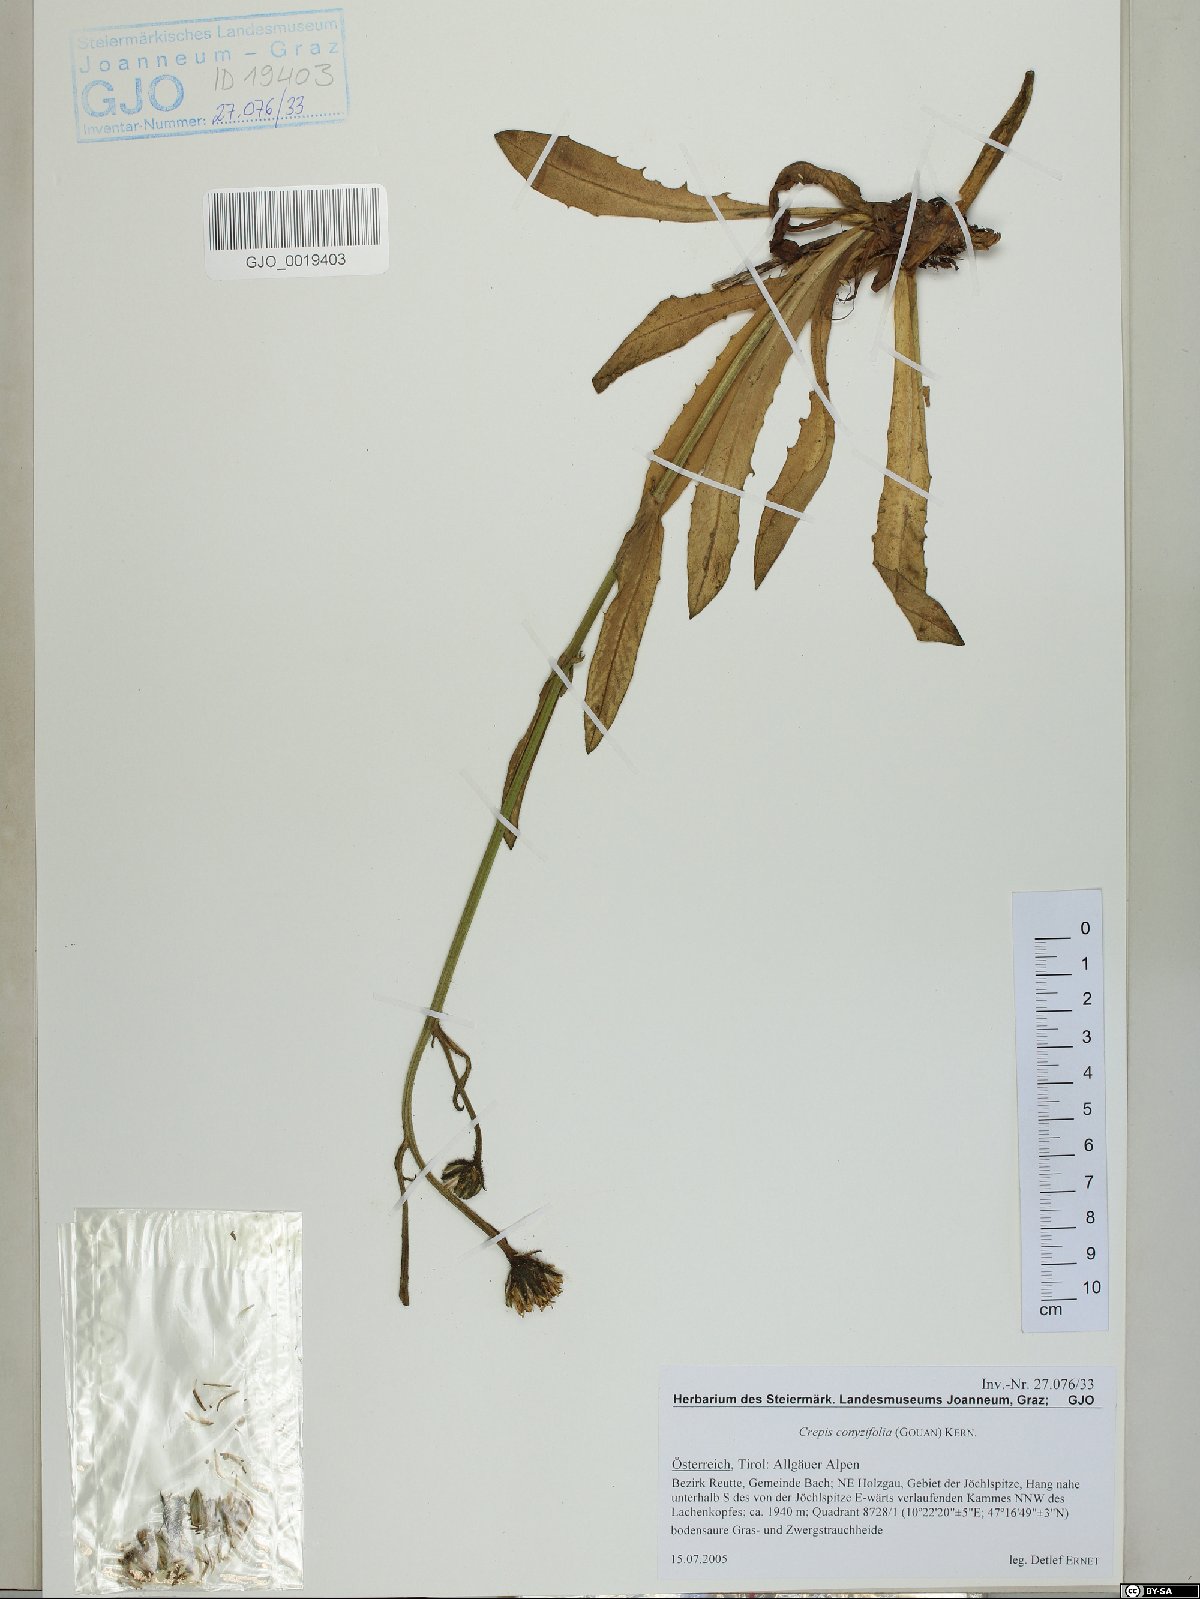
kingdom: Plantae
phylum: Tracheophyta
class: Magnoliopsida
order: Asterales
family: Asteraceae
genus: Crepis
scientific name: Crepis blattarioides
